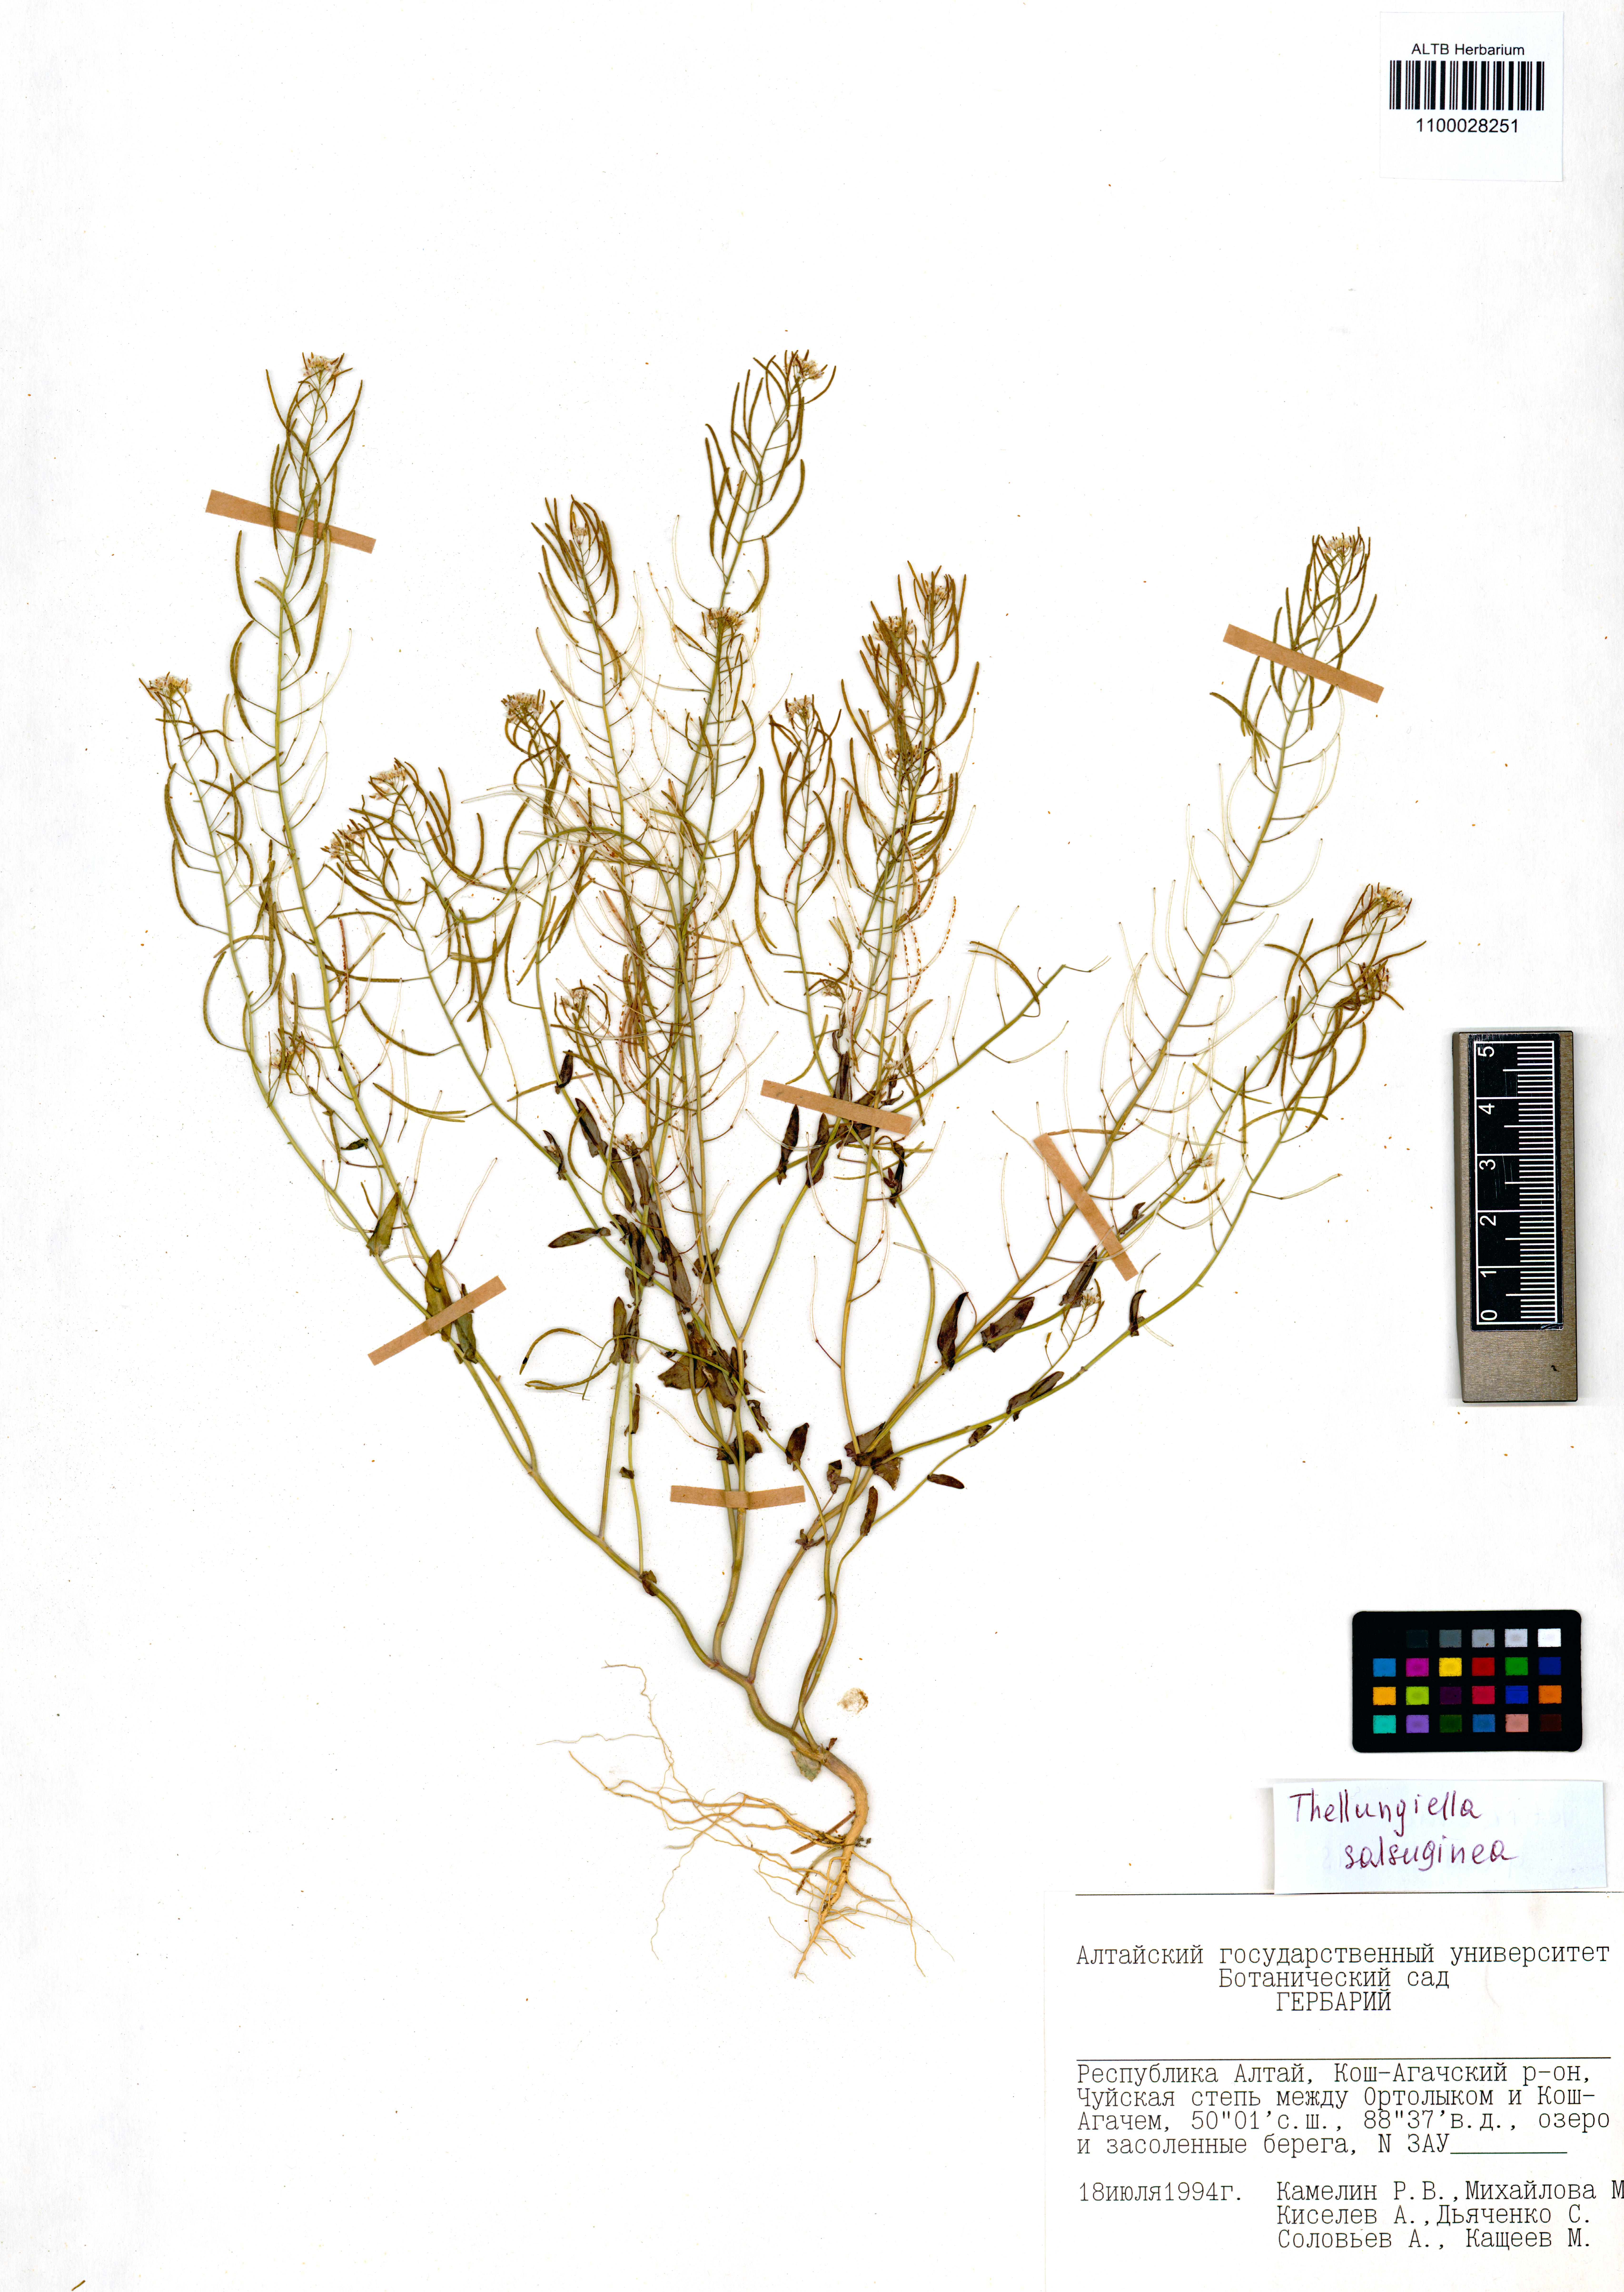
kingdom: Plantae
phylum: Tracheophyta
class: Magnoliopsida
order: Brassicales
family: Brassicaceae
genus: Eutrema
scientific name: Eutrema salsugineum
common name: Mouse-ear cress
